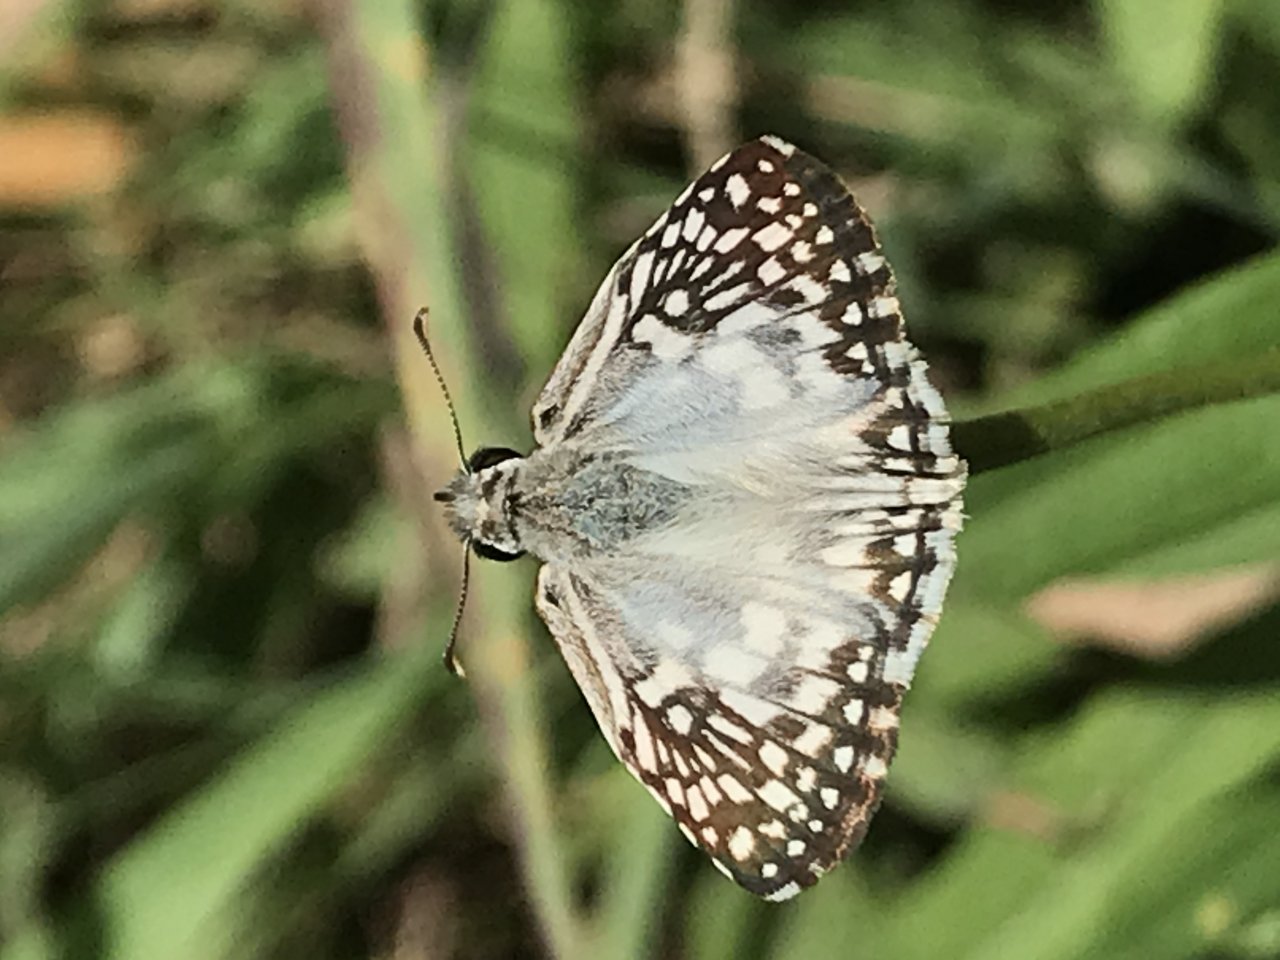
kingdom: Animalia
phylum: Arthropoda
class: Insecta
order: Lepidoptera
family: Hesperiidae
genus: Pyrgus
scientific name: Pyrgus oileus
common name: Tropical Checkered-Skipper
